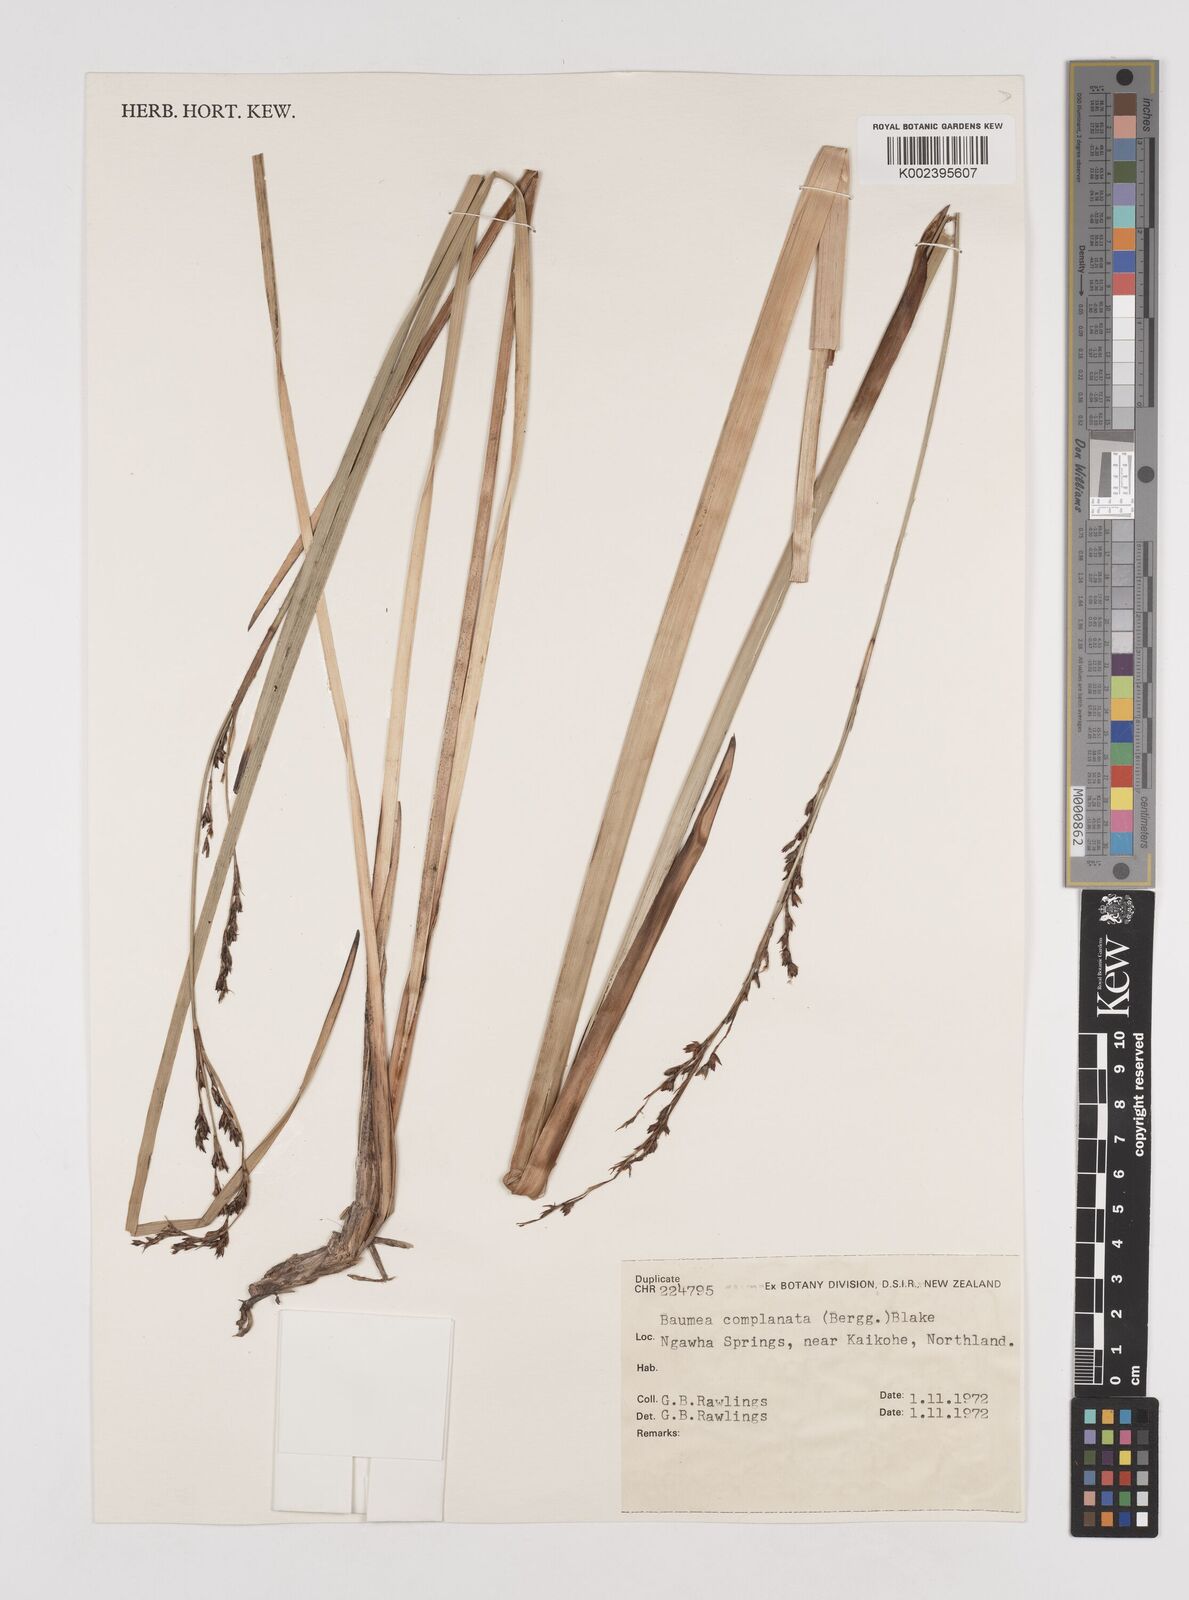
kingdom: Plantae
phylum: Tracheophyta
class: Liliopsida
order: Poales
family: Cyperaceae
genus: Machaerina
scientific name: Machaerina complanata
